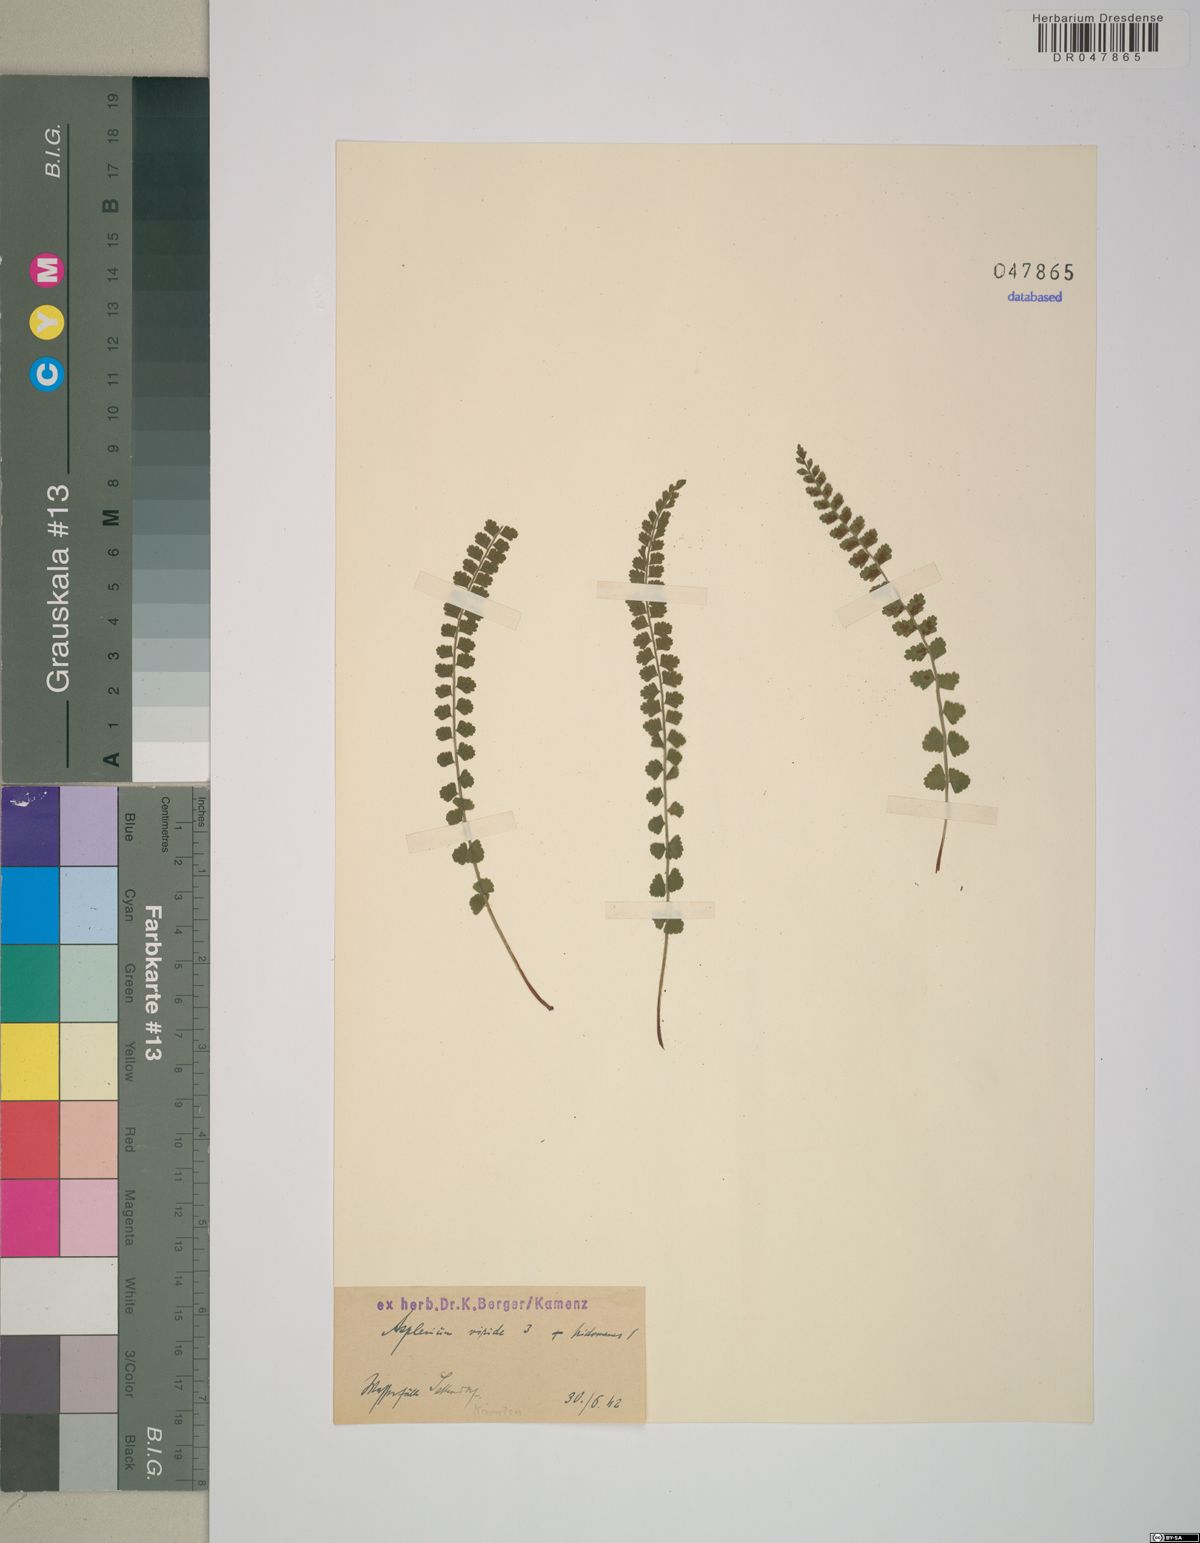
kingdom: Plantae
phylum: Tracheophyta
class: Polypodiopsida
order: Polypodiales
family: Aspleniaceae
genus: Asplenium
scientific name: Asplenium viride
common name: Green spleenwort
